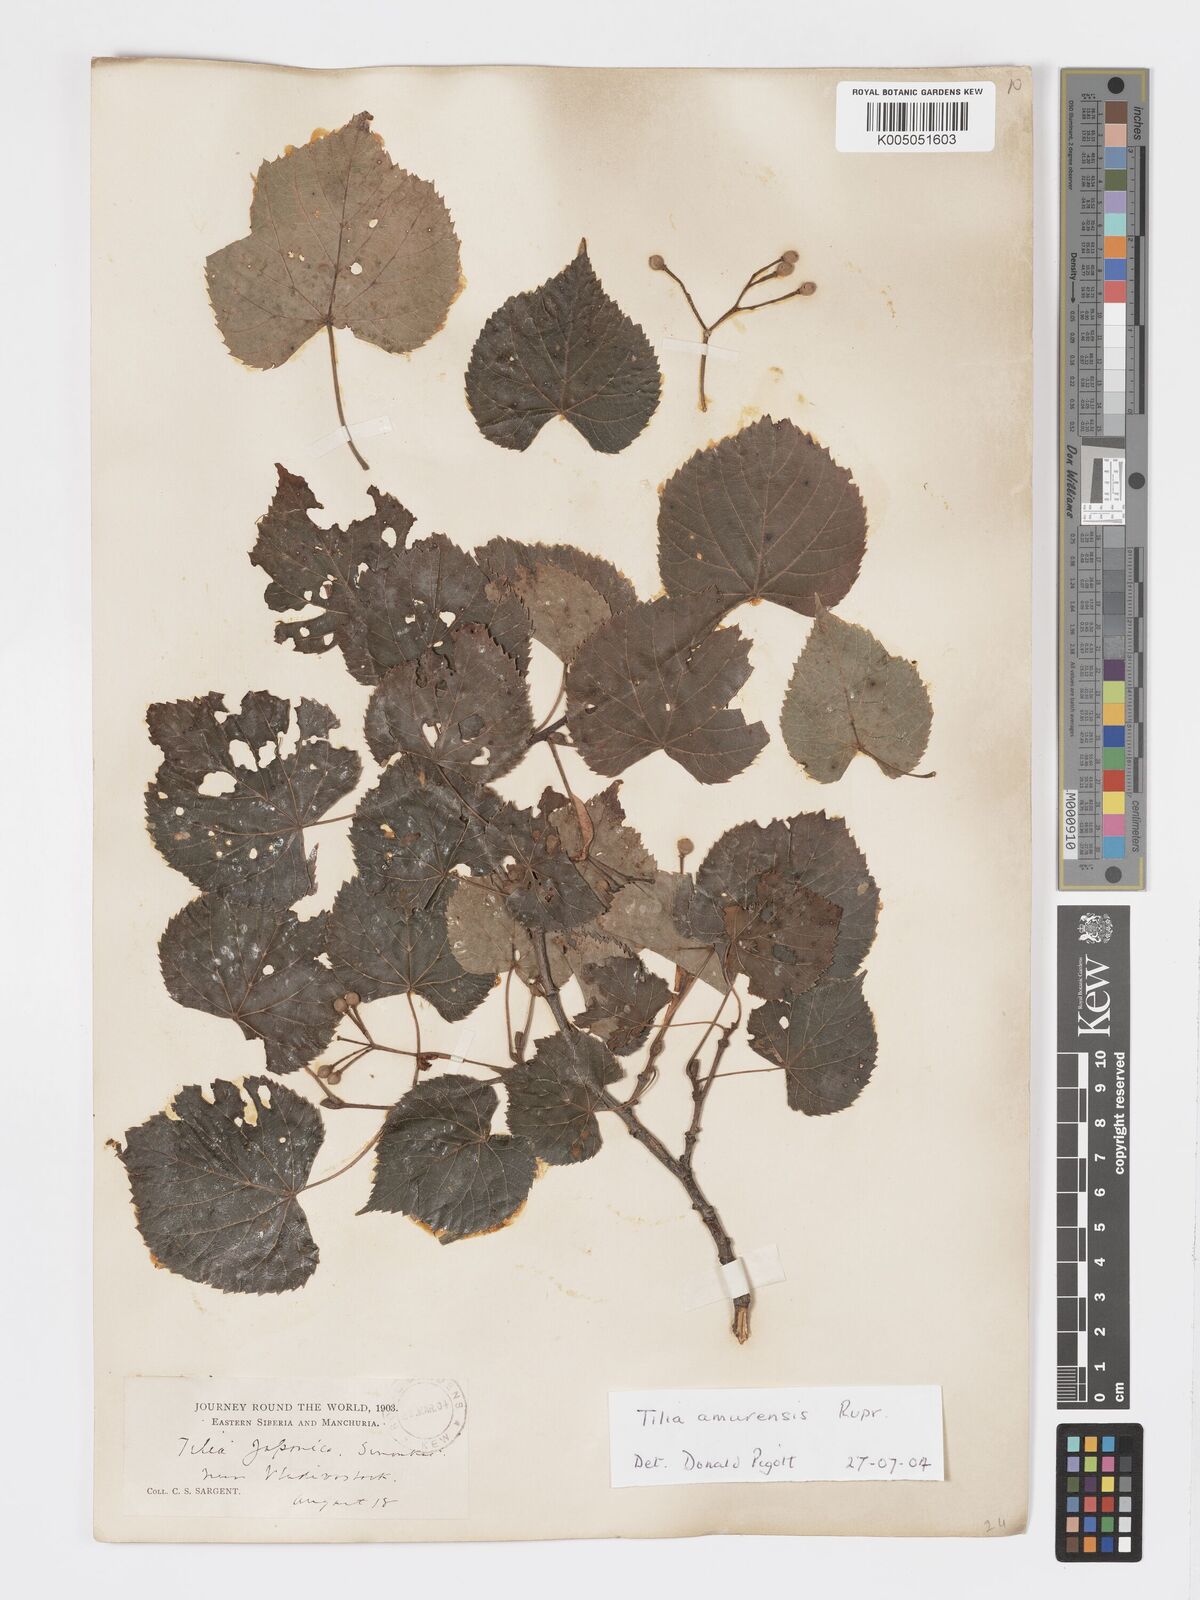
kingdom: Plantae
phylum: Tracheophyta
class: Magnoliopsida
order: Malvales
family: Malvaceae
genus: Tilia
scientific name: Tilia japonica
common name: Japanese lime
